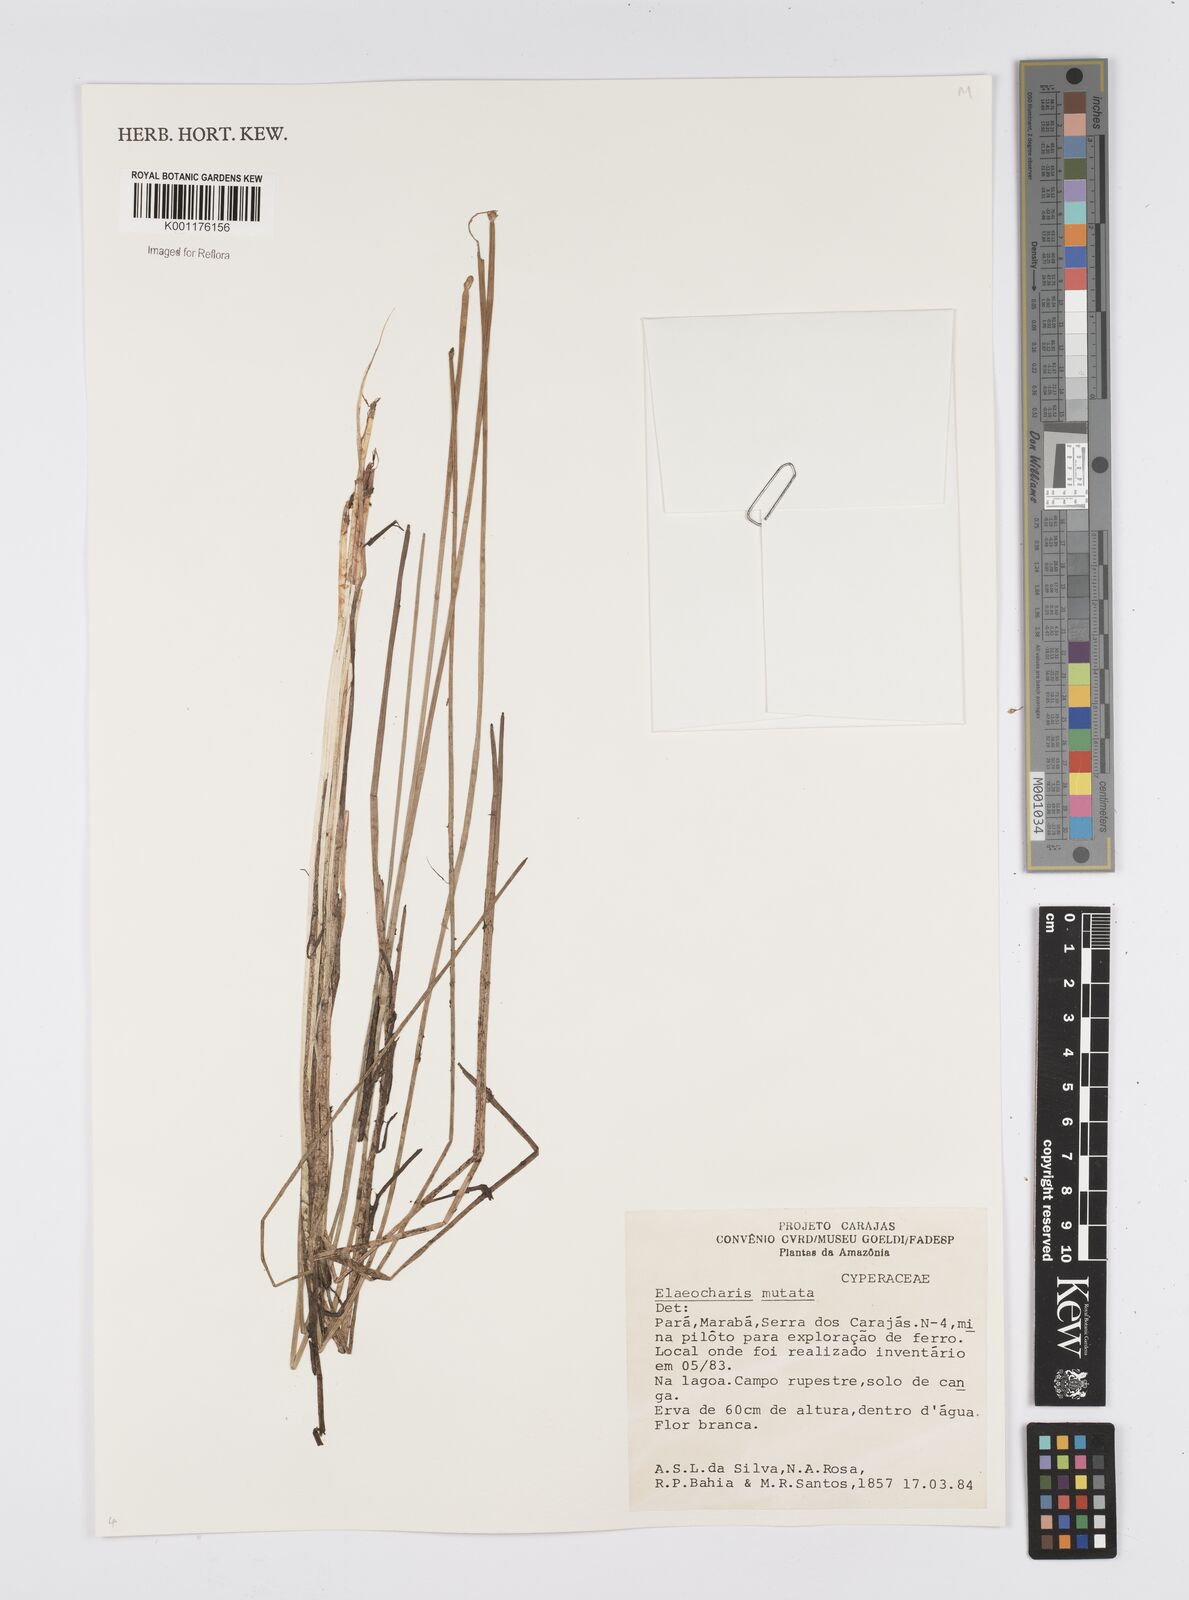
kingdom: Plantae
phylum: Tracheophyta
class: Liliopsida
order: Poales
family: Cyperaceae
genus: Eleocharis
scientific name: Eleocharis mutata
